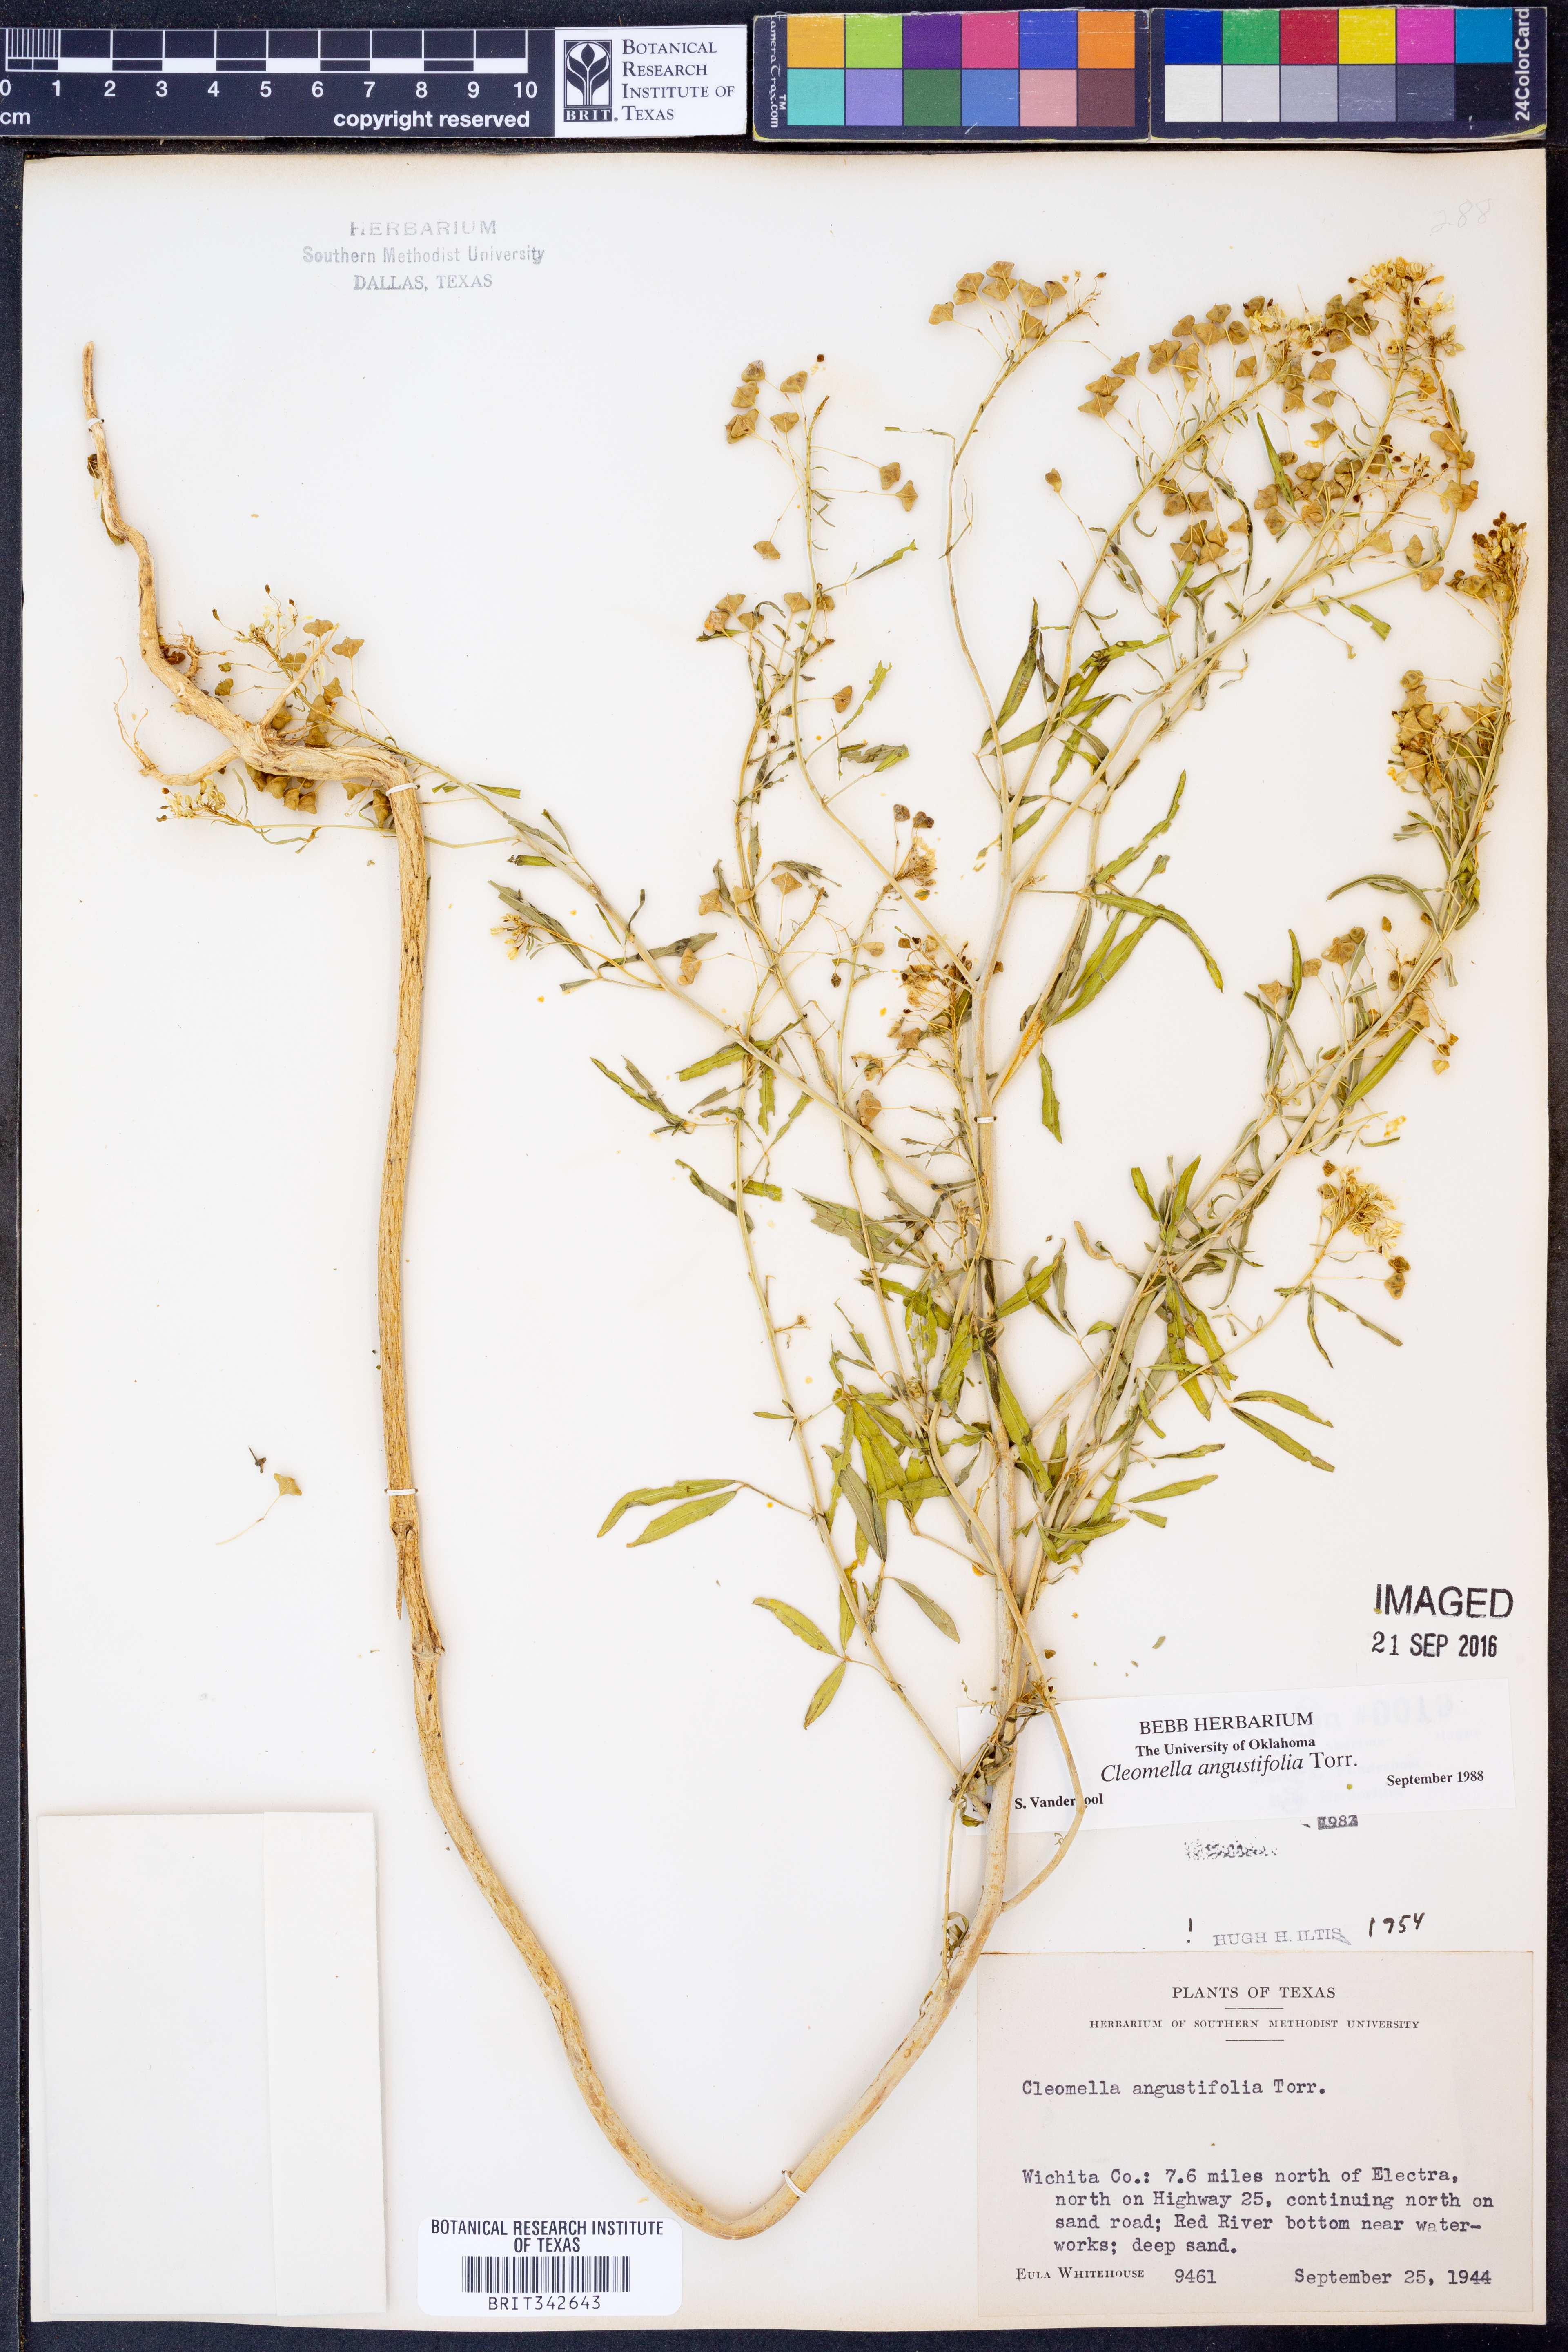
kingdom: Plantae
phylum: Tracheophyta
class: Magnoliopsida
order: Brassicales
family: Cleomaceae
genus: Cleomella
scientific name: Cleomella angustifolia
